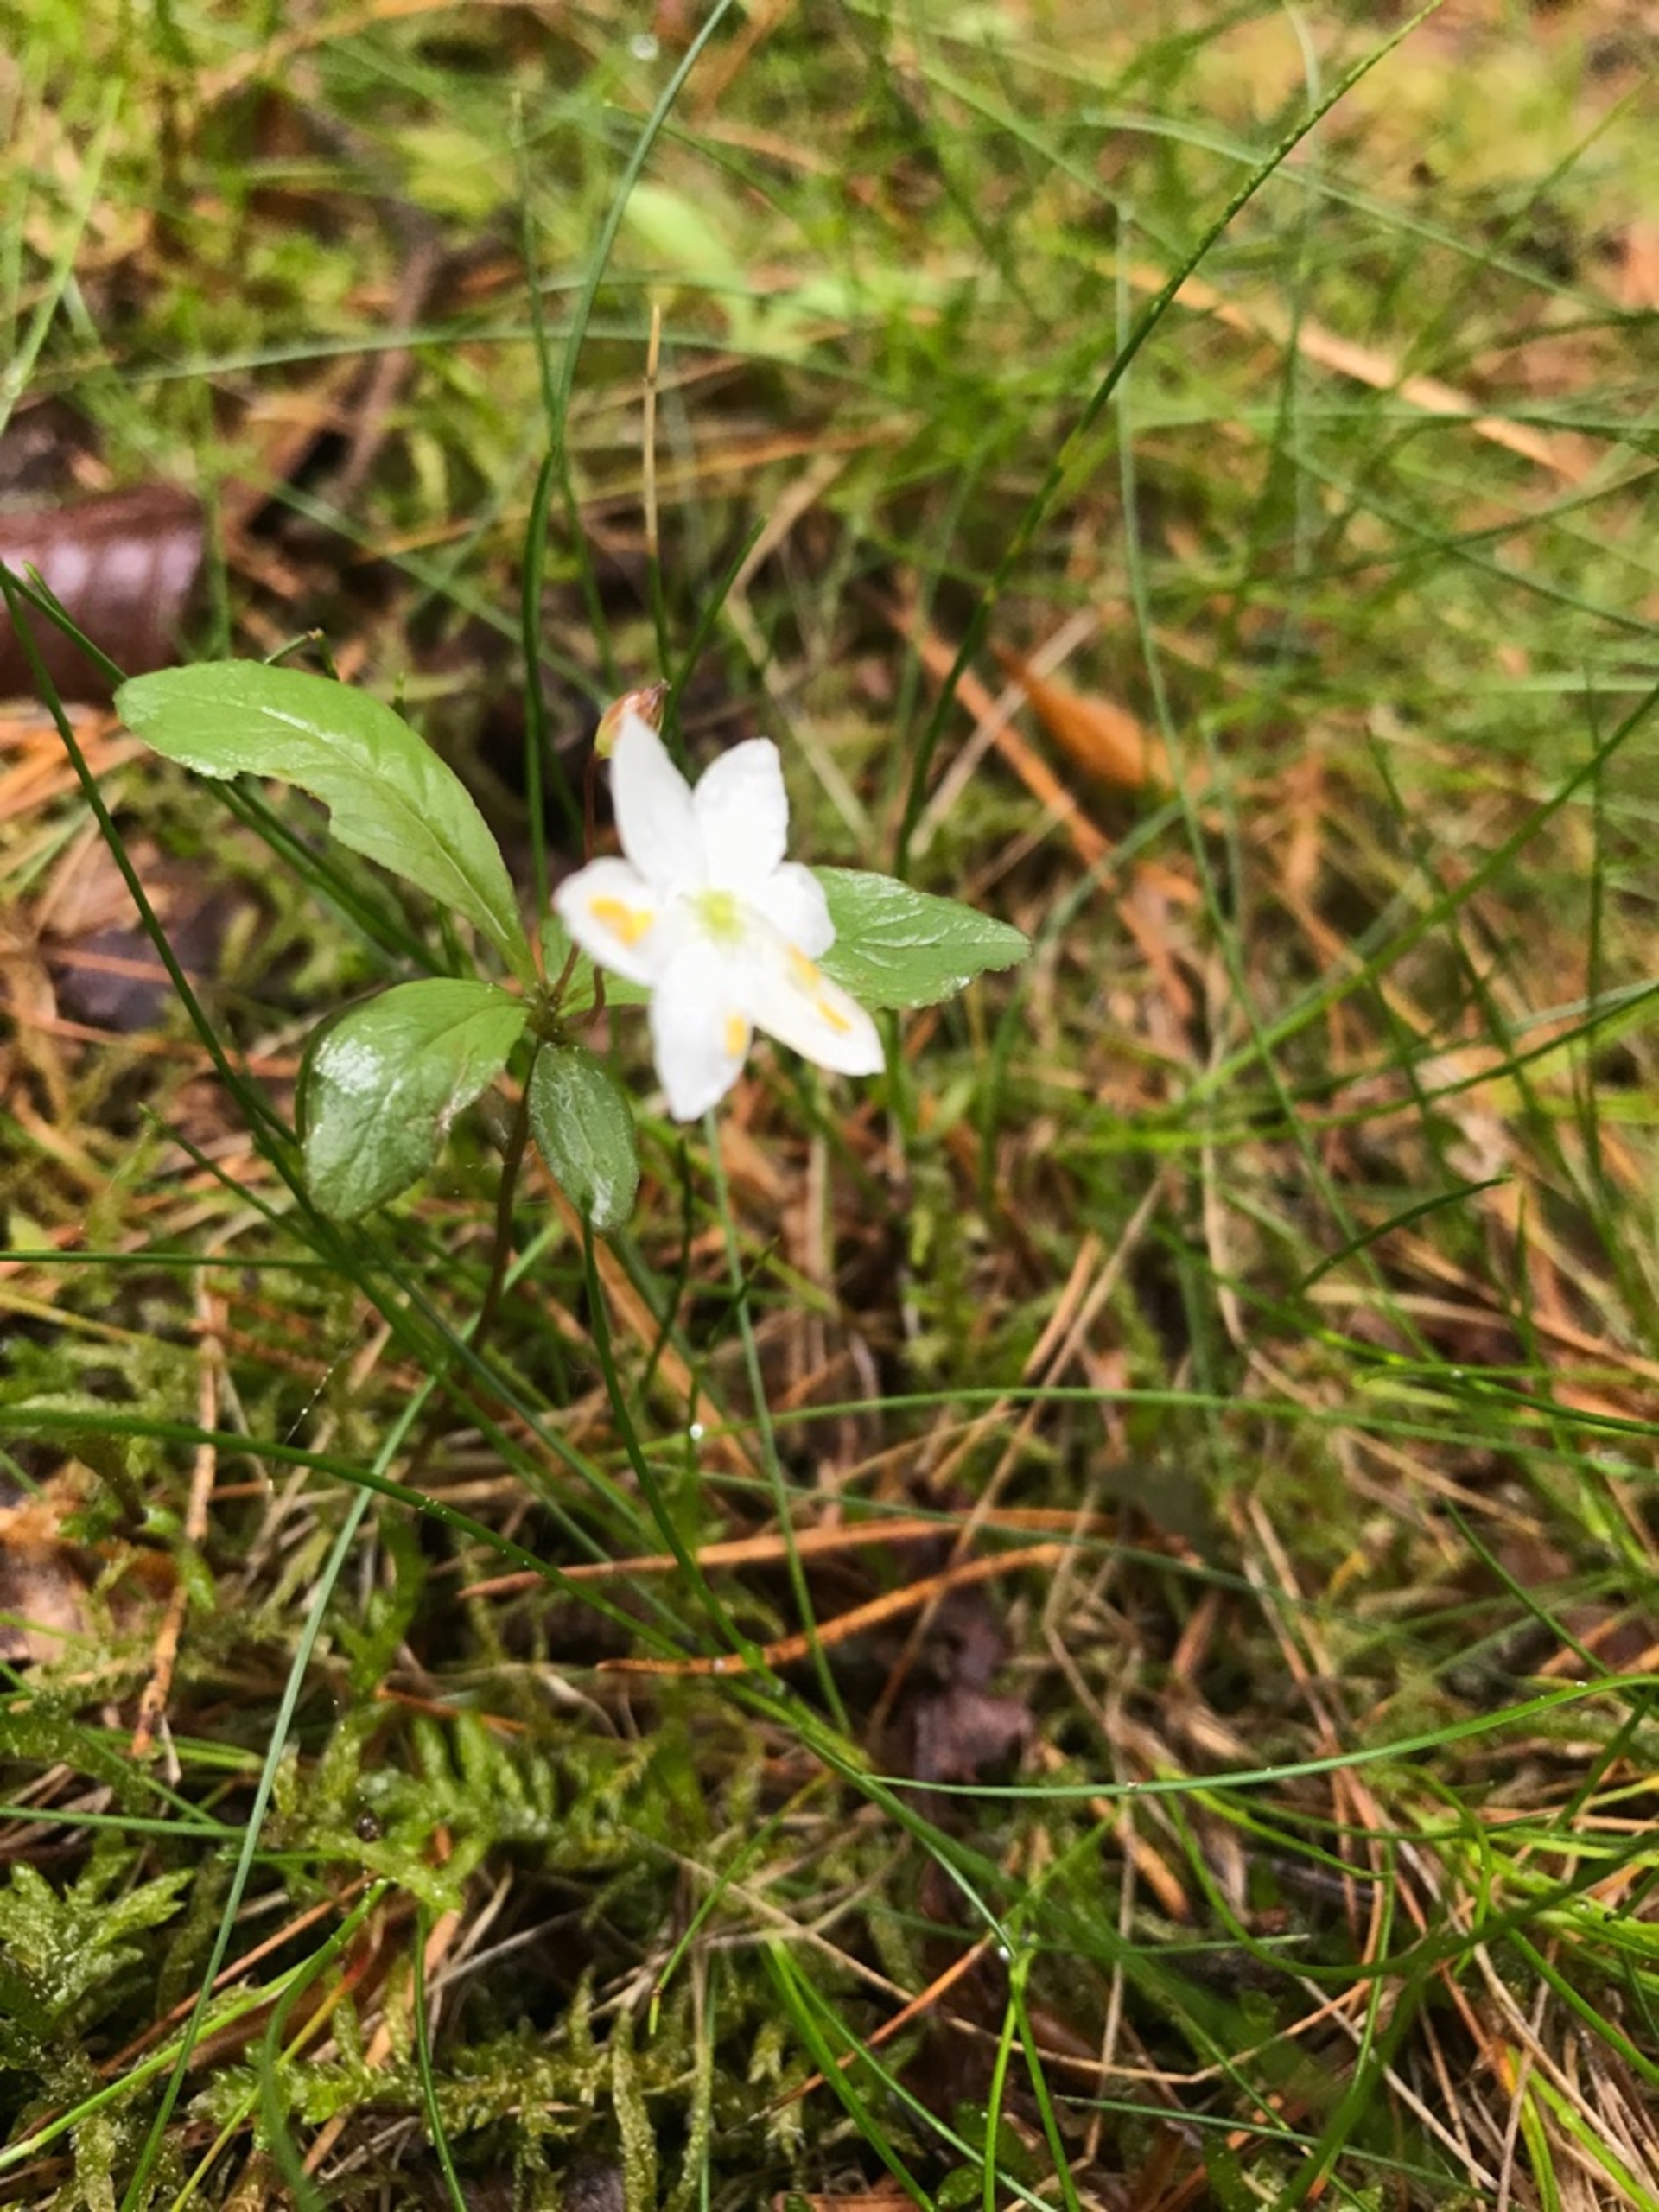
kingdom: Plantae
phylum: Tracheophyta
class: Magnoliopsida
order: Ericales
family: Primulaceae
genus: Lysimachia
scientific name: Lysimachia europaea
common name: Skovstjerne
